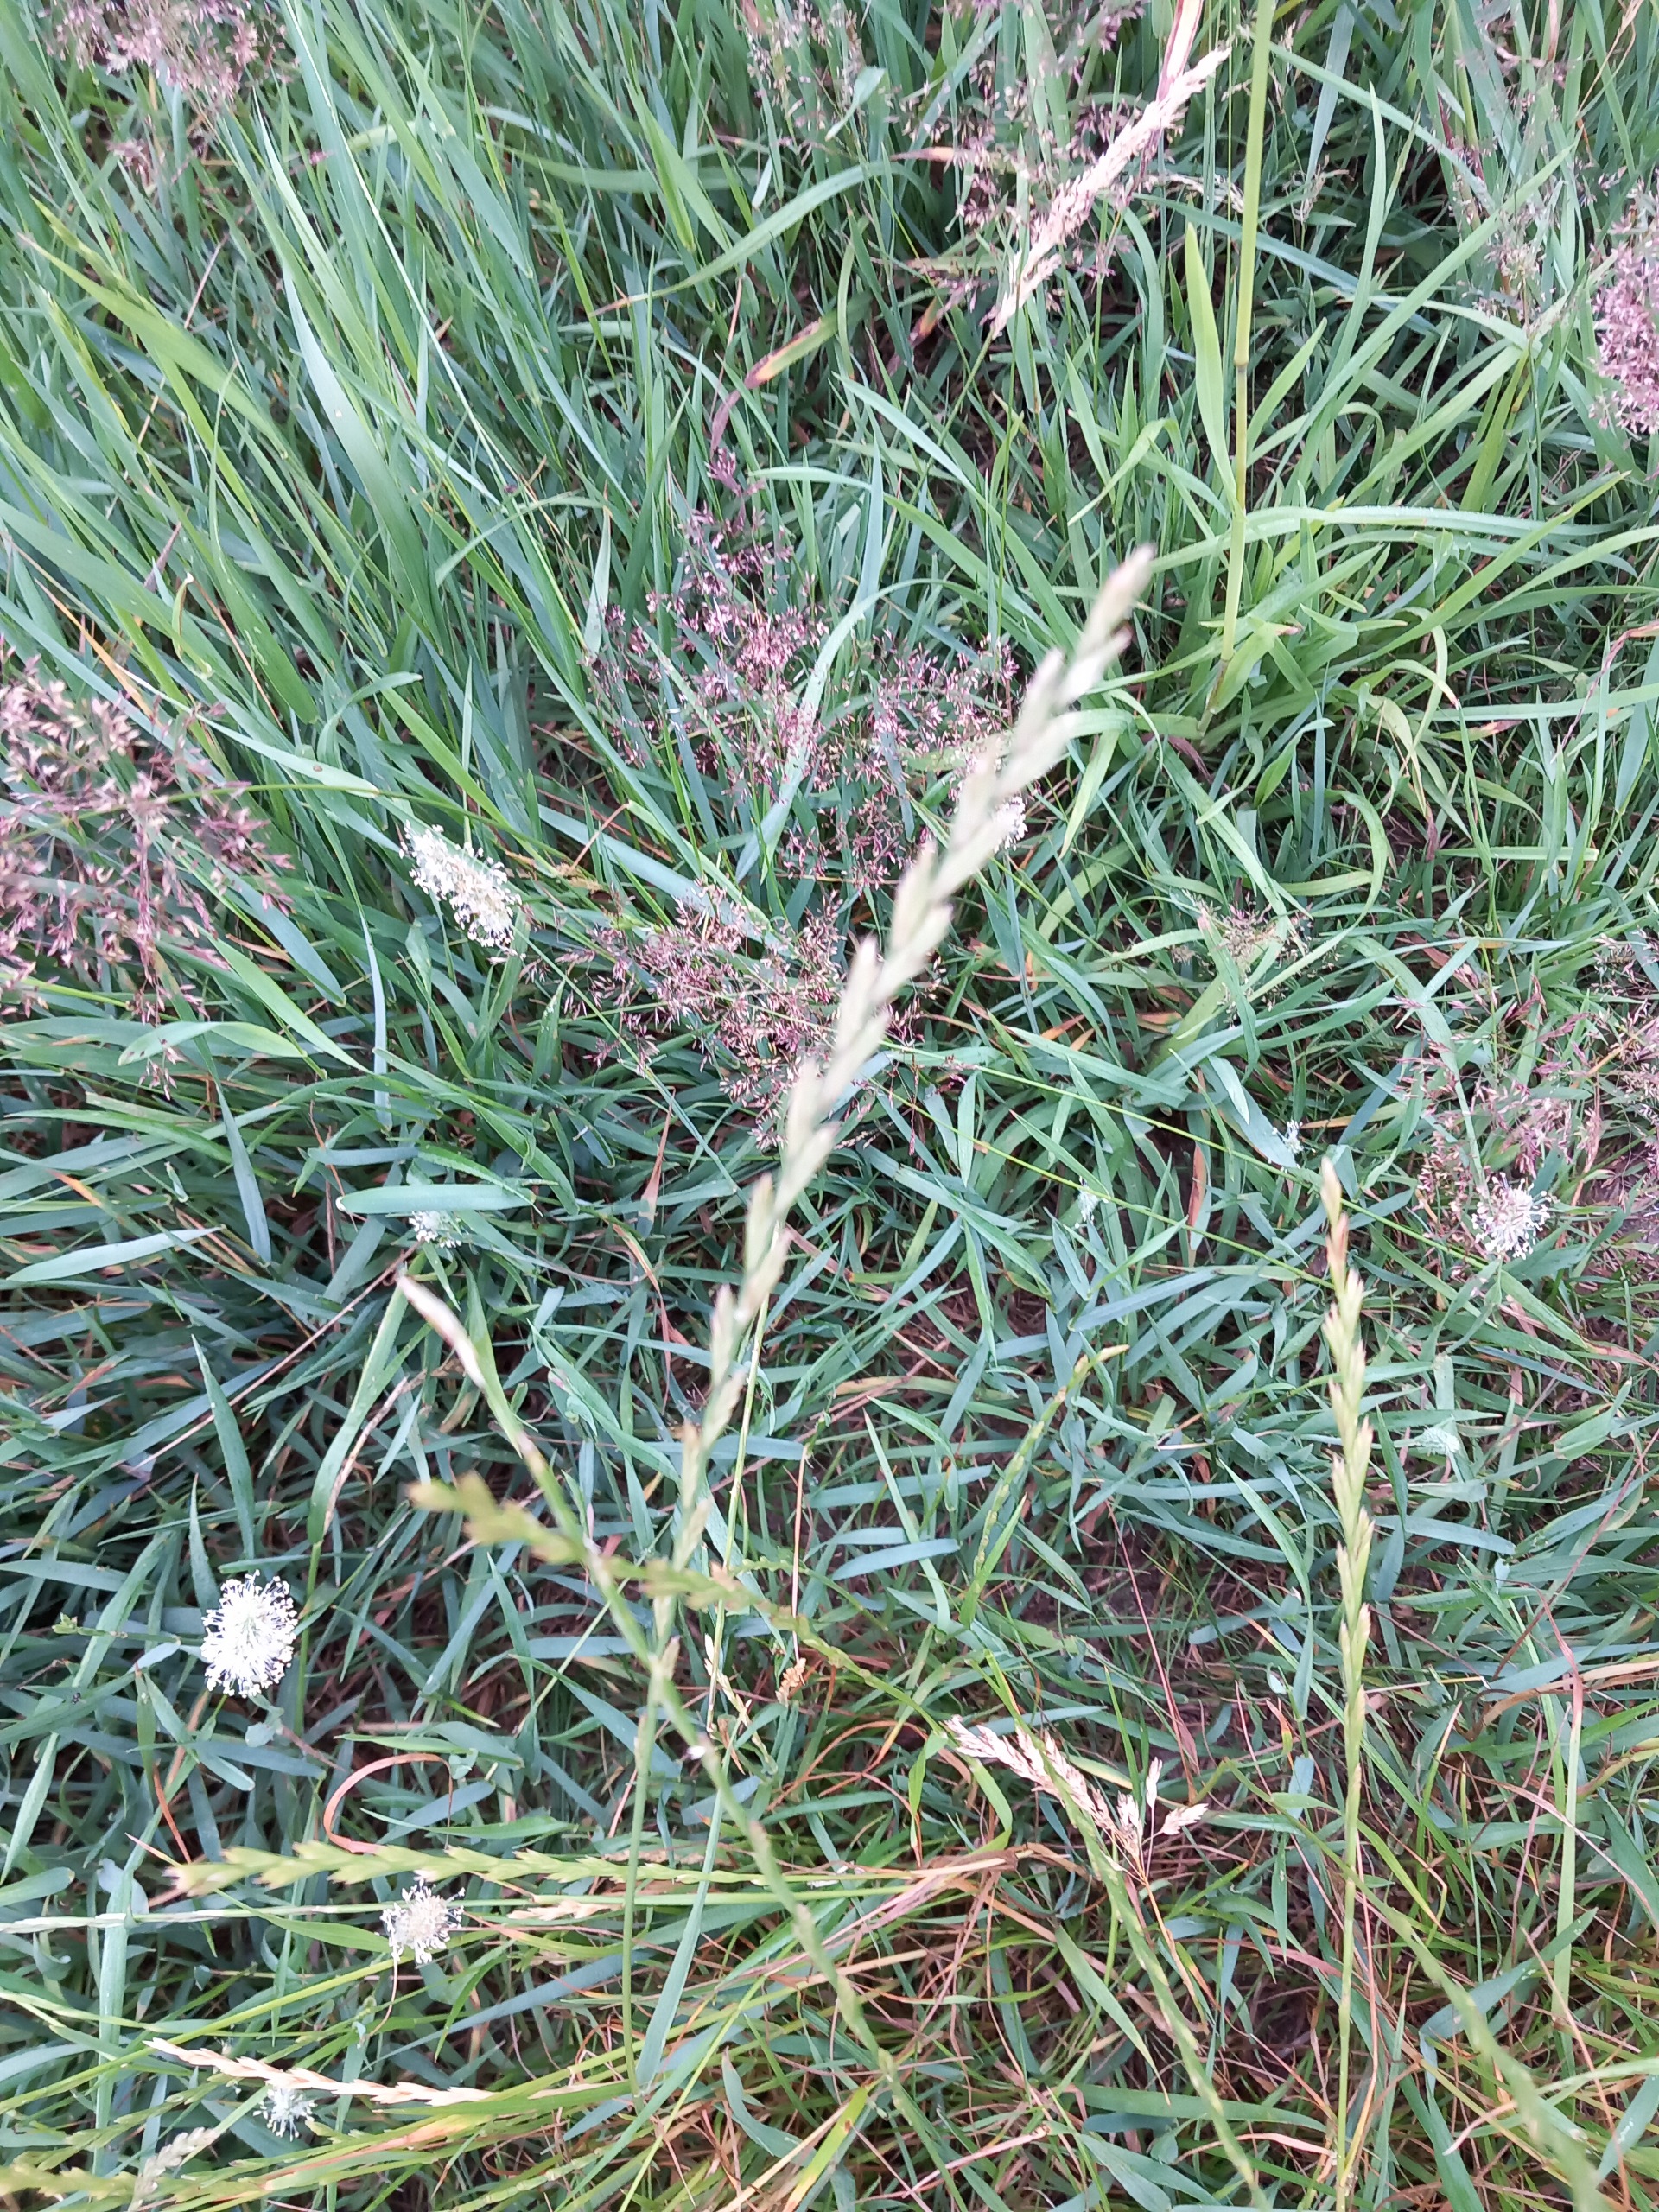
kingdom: Plantae
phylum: Tracheophyta
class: Liliopsida
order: Poales
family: Poaceae
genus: Lolium
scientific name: Lolium perenne
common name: Almindelig rajgræs
